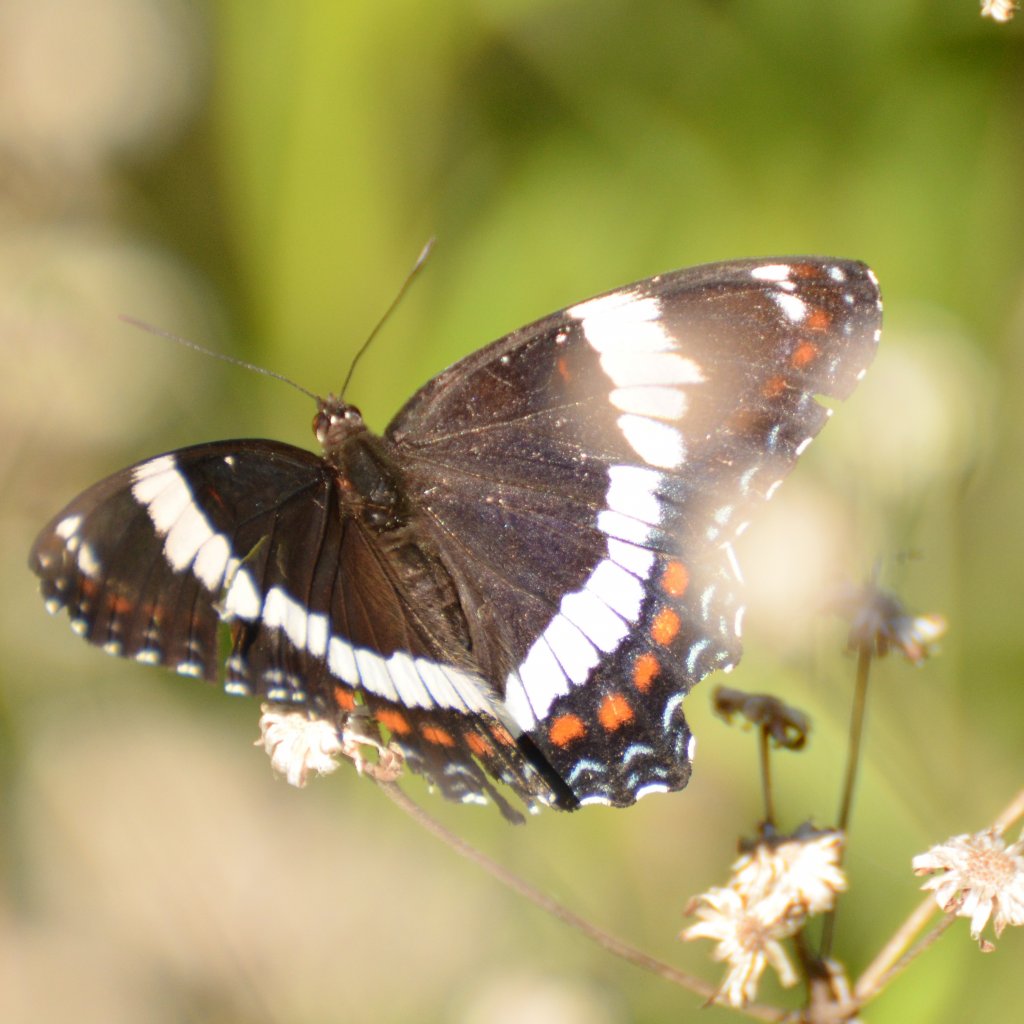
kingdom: Animalia
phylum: Arthropoda
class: Insecta
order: Lepidoptera
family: Nymphalidae
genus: Limenitis
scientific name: Limenitis arthemis
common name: Red-spotted Admiral
